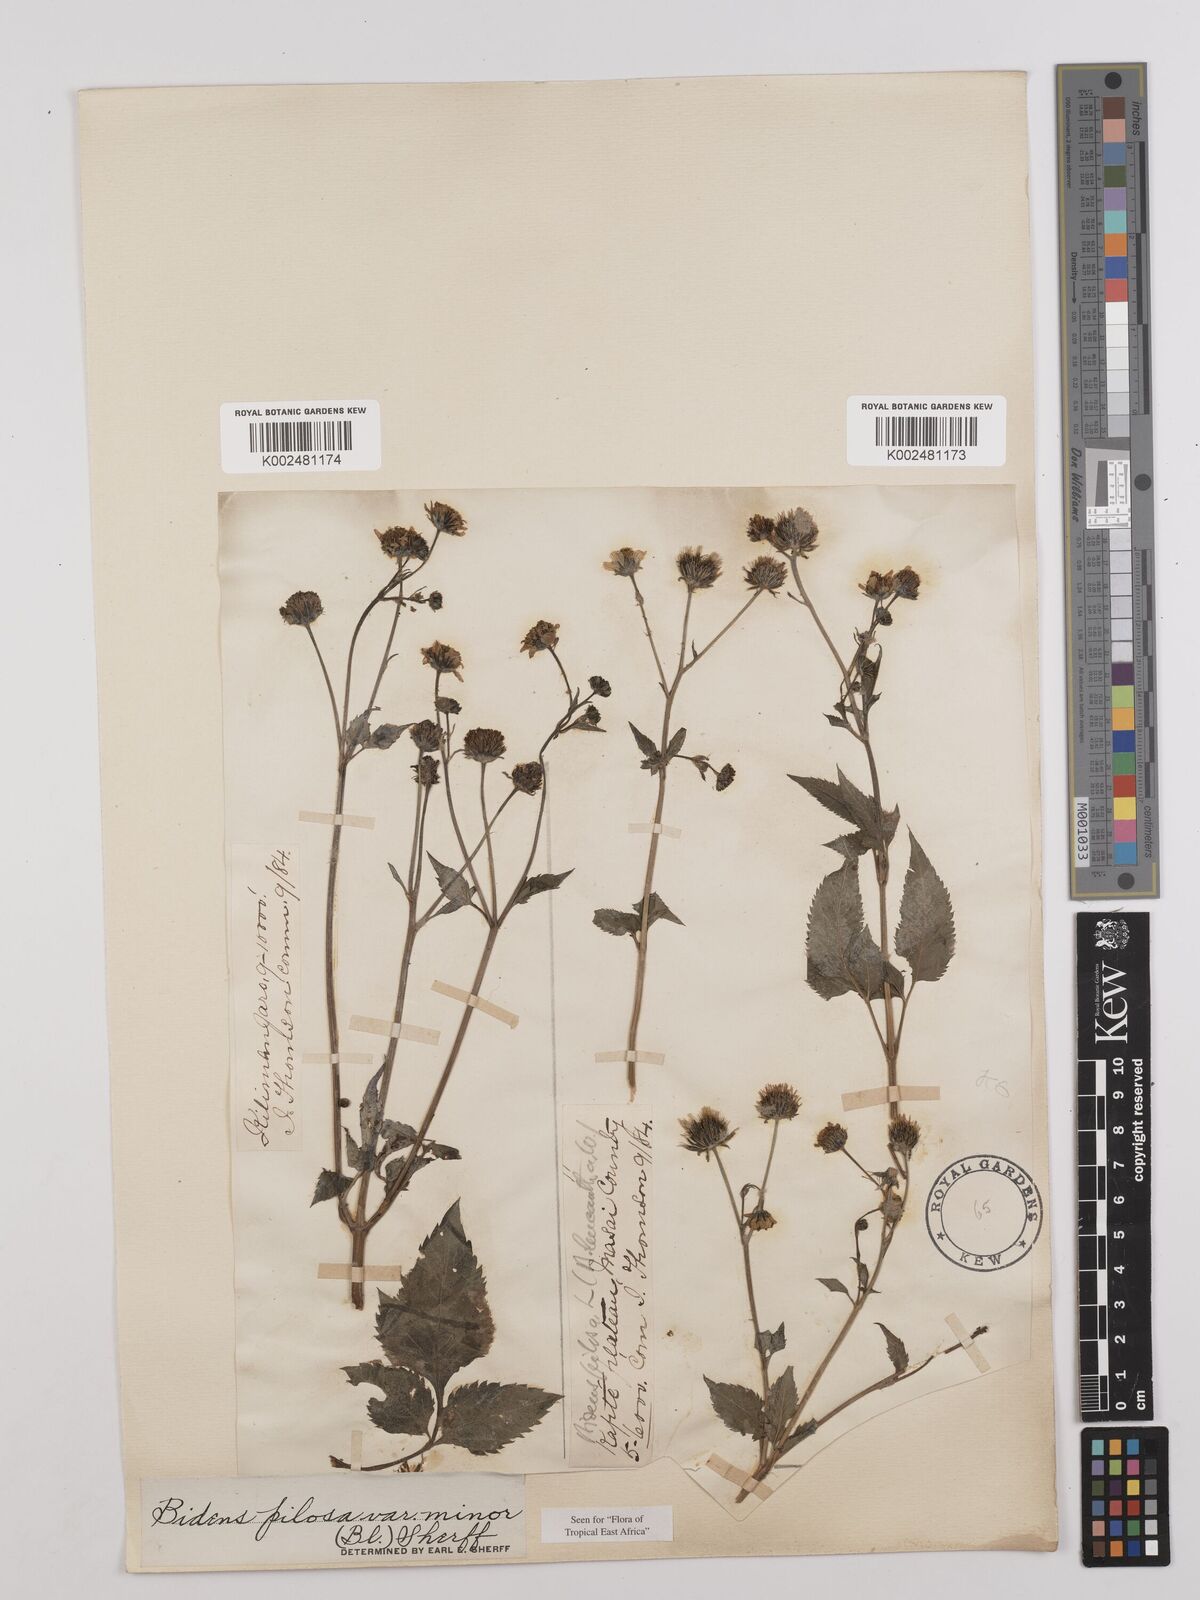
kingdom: Plantae
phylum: Tracheophyta
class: Magnoliopsida
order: Asterales
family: Asteraceae
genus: Bidens
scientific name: Bidens pilosa
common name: Black-jack
